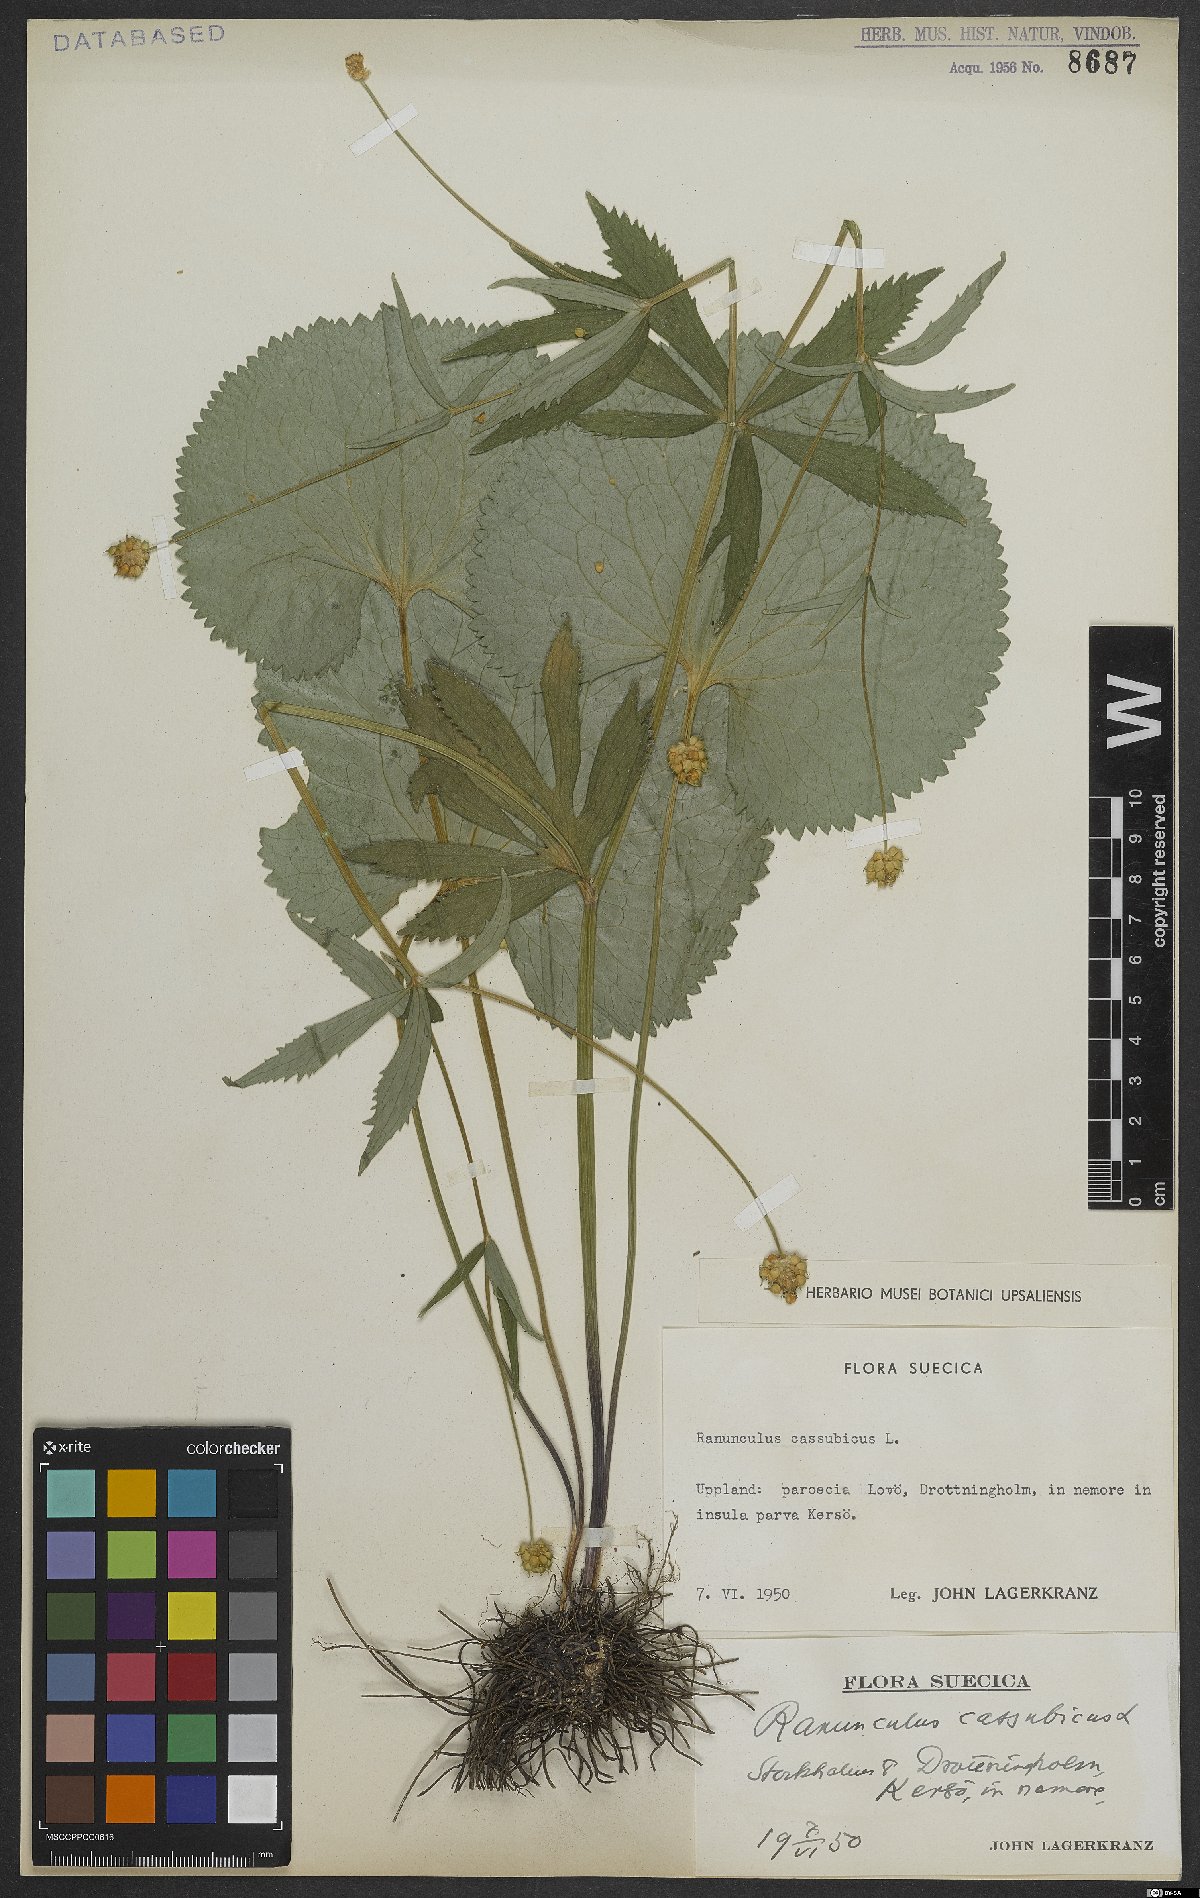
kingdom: Plantae
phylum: Tracheophyta
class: Magnoliopsida
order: Ranunculales
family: Ranunculaceae
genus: Ranunculus
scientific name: Ranunculus cassubicus
